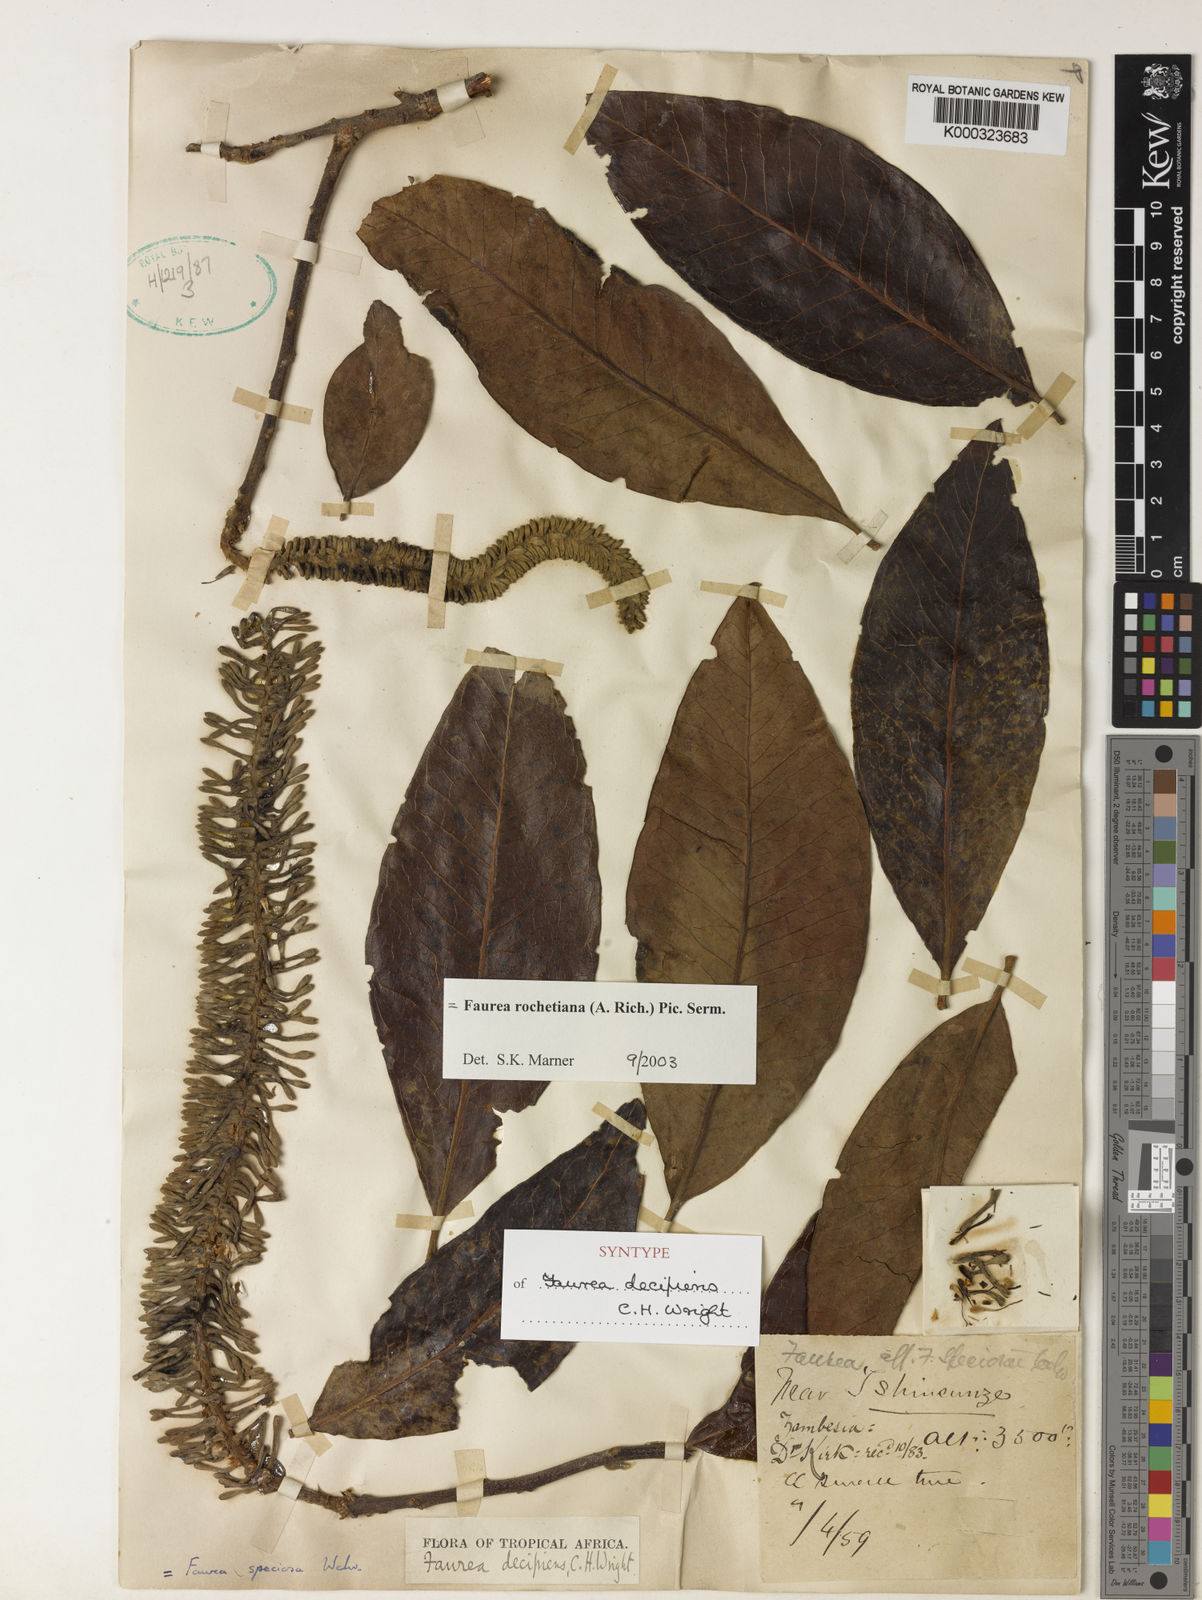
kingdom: Plantae
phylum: Tracheophyta
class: Magnoliopsida
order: Proteales
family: Proteaceae
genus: Faurea
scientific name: Faurea rochetiana
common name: Broad-leaved beech
